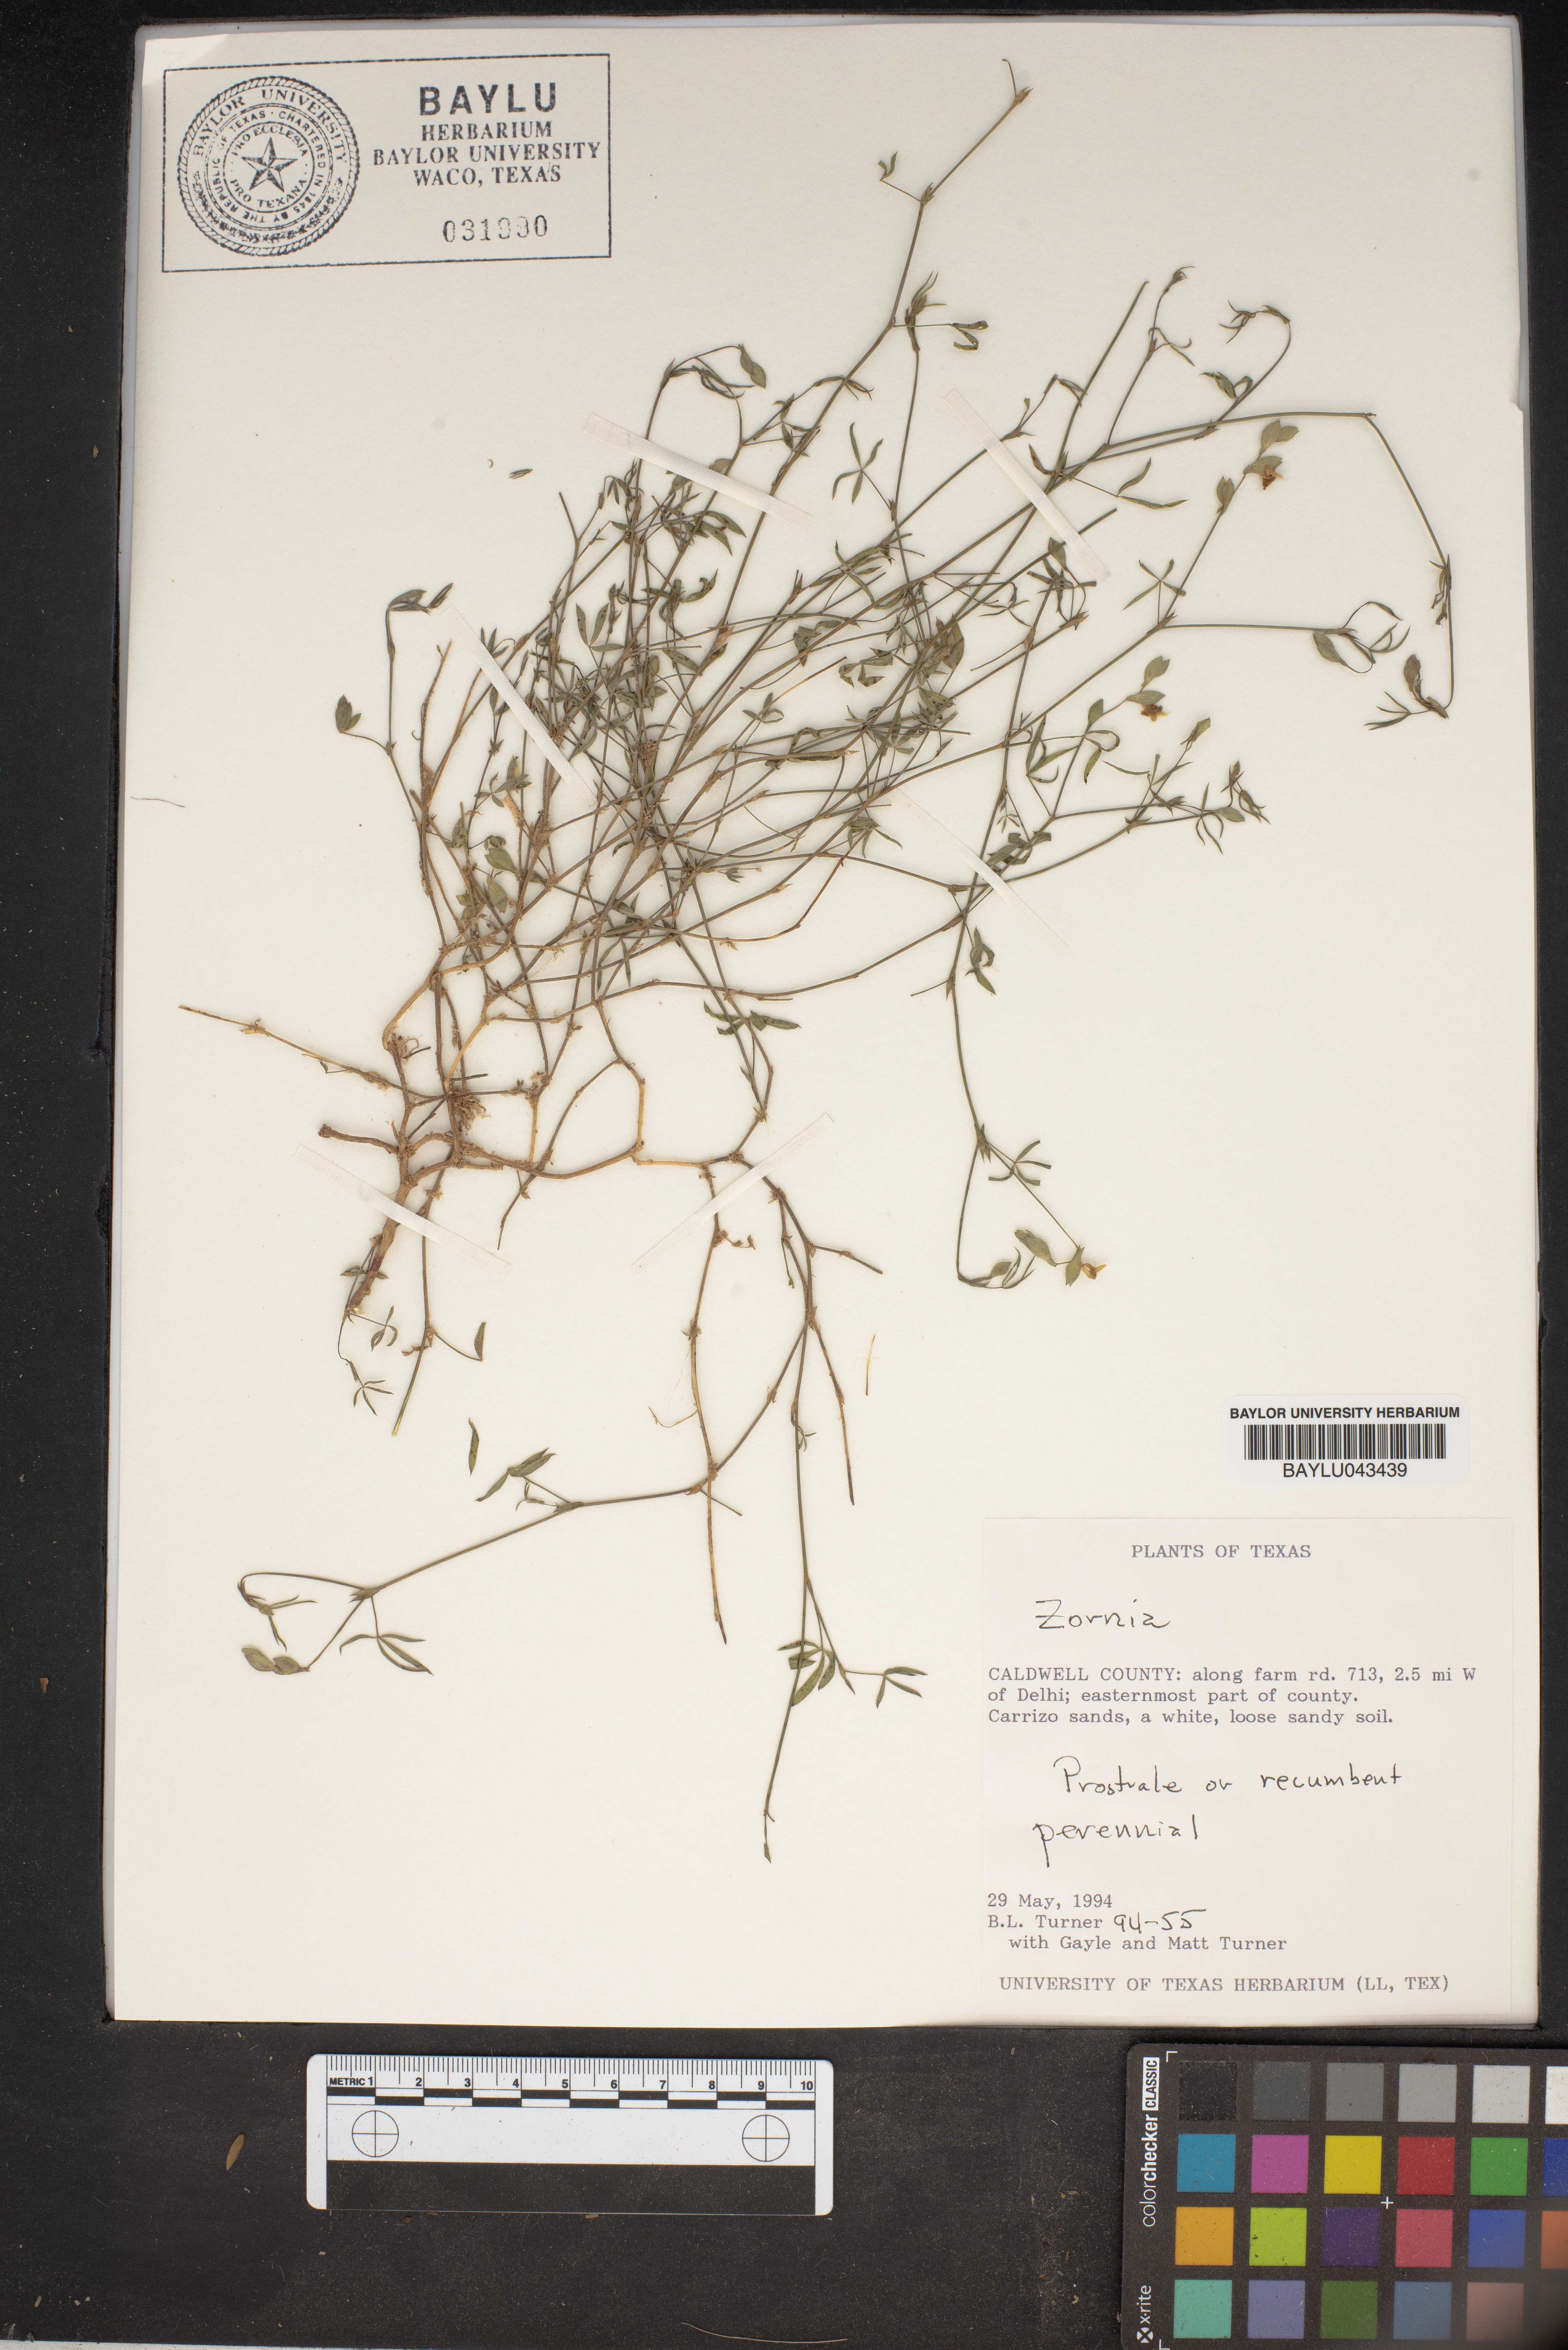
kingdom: Plantae
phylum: Tracheophyta
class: Magnoliopsida
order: Fabales
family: Fabaceae
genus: Zornia
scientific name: Zornia
